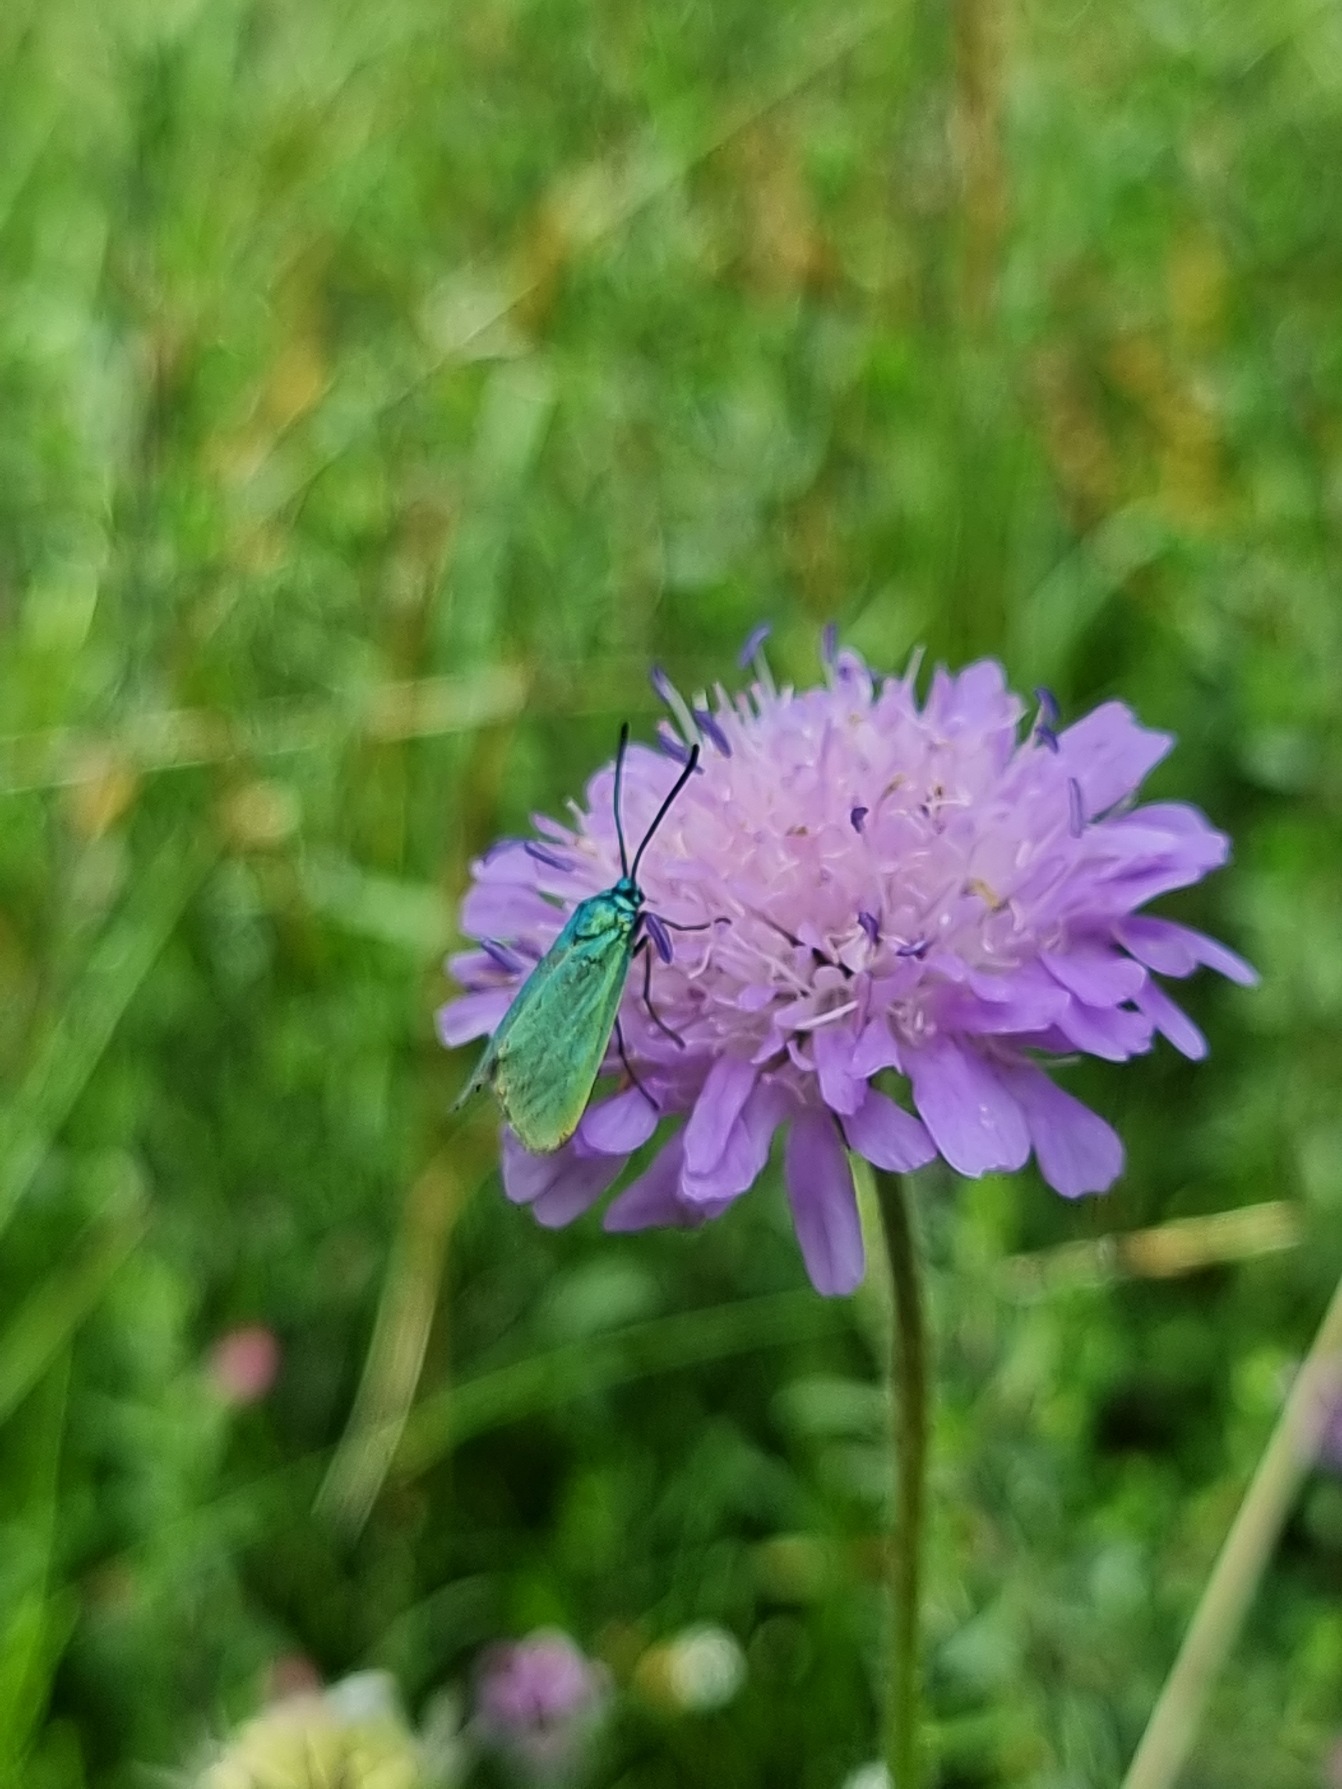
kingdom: Animalia
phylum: Arthropoda
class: Insecta
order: Lepidoptera
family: Zygaenidae
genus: Adscita
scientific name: Adscita statices
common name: Metalvinge
